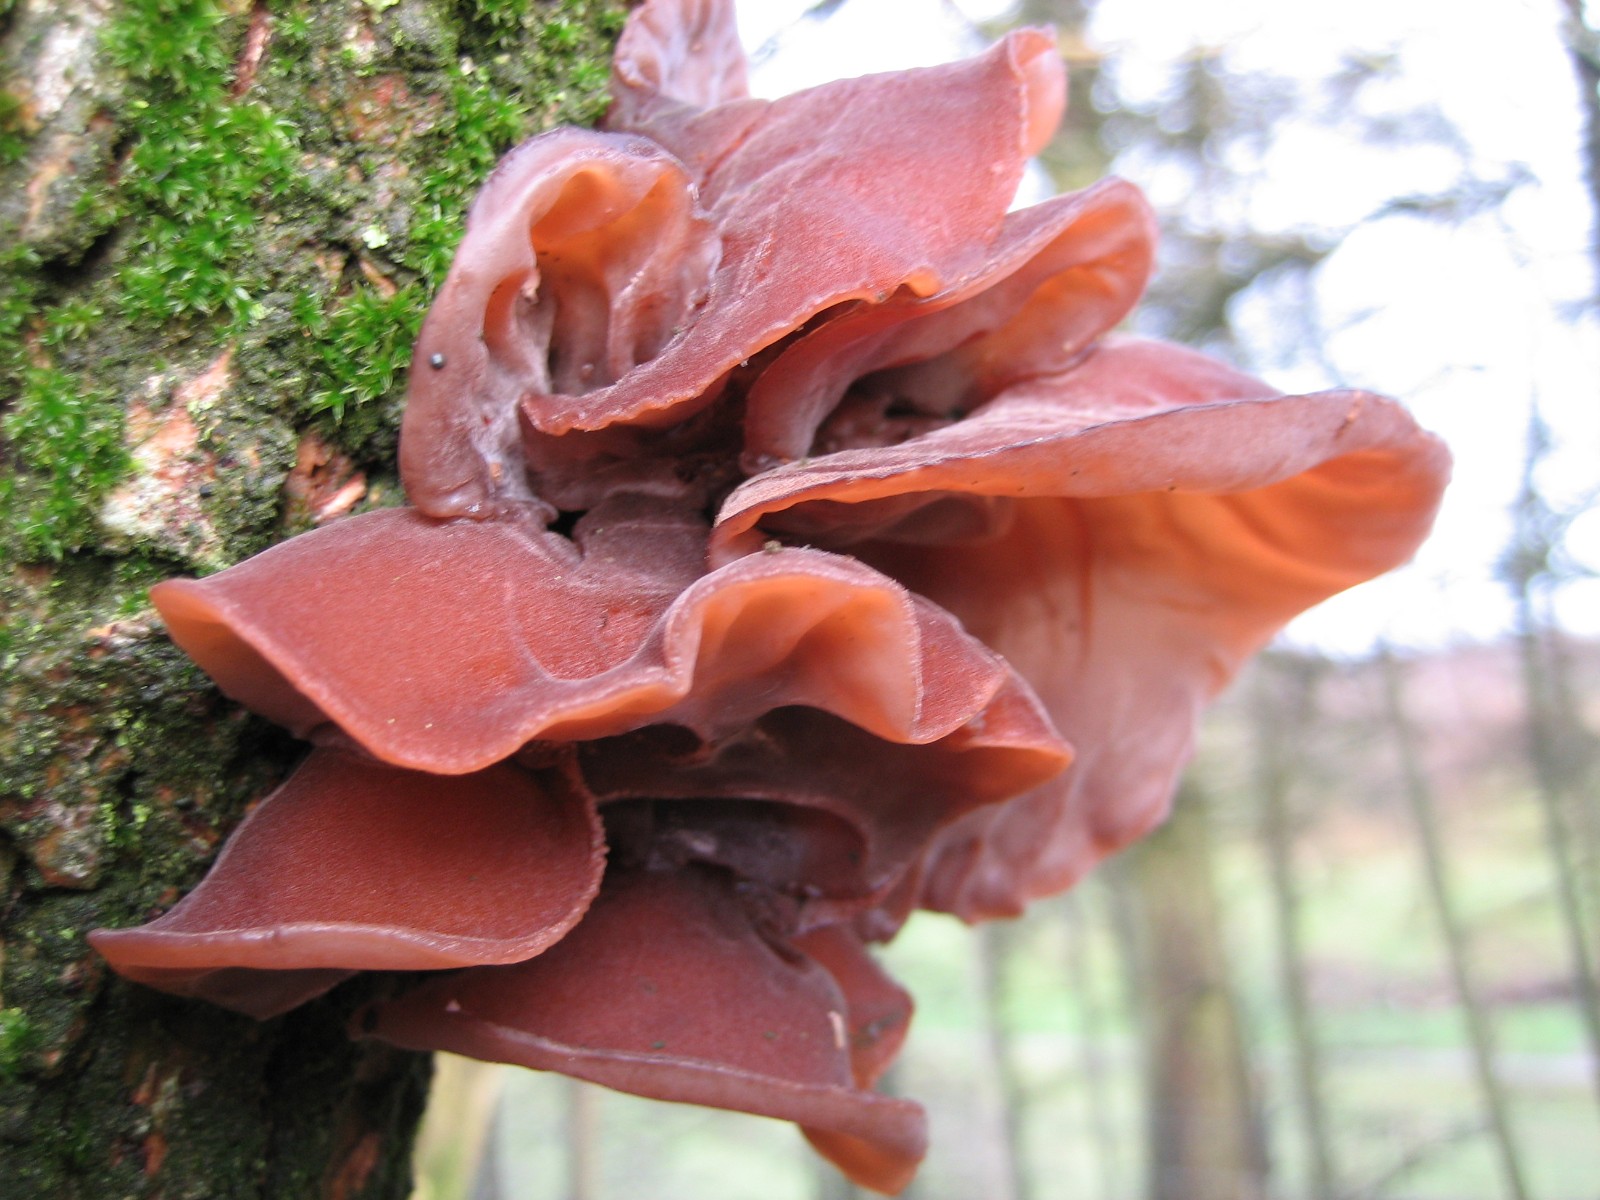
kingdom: Fungi
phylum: Basidiomycota
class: Agaricomycetes
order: Auriculariales
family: Auriculariaceae
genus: Auricularia
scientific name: Auricularia auricula-judae
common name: almindelig judasøre
